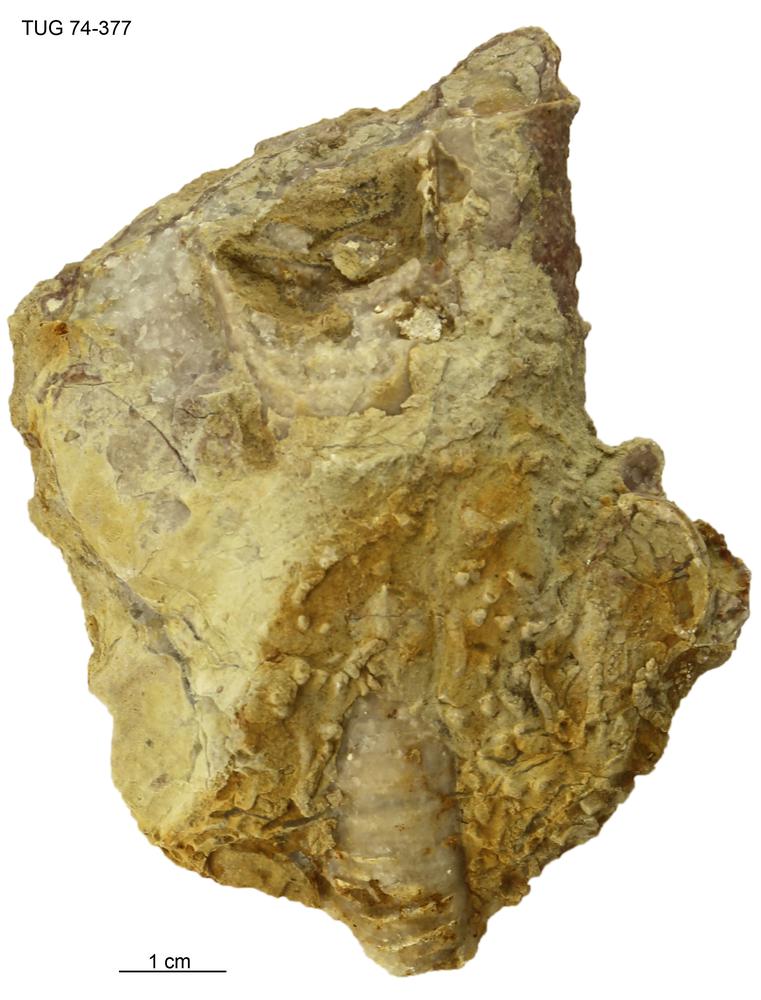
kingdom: Animalia
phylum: Mollusca
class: Cephalopoda
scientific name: Cephalopoda
